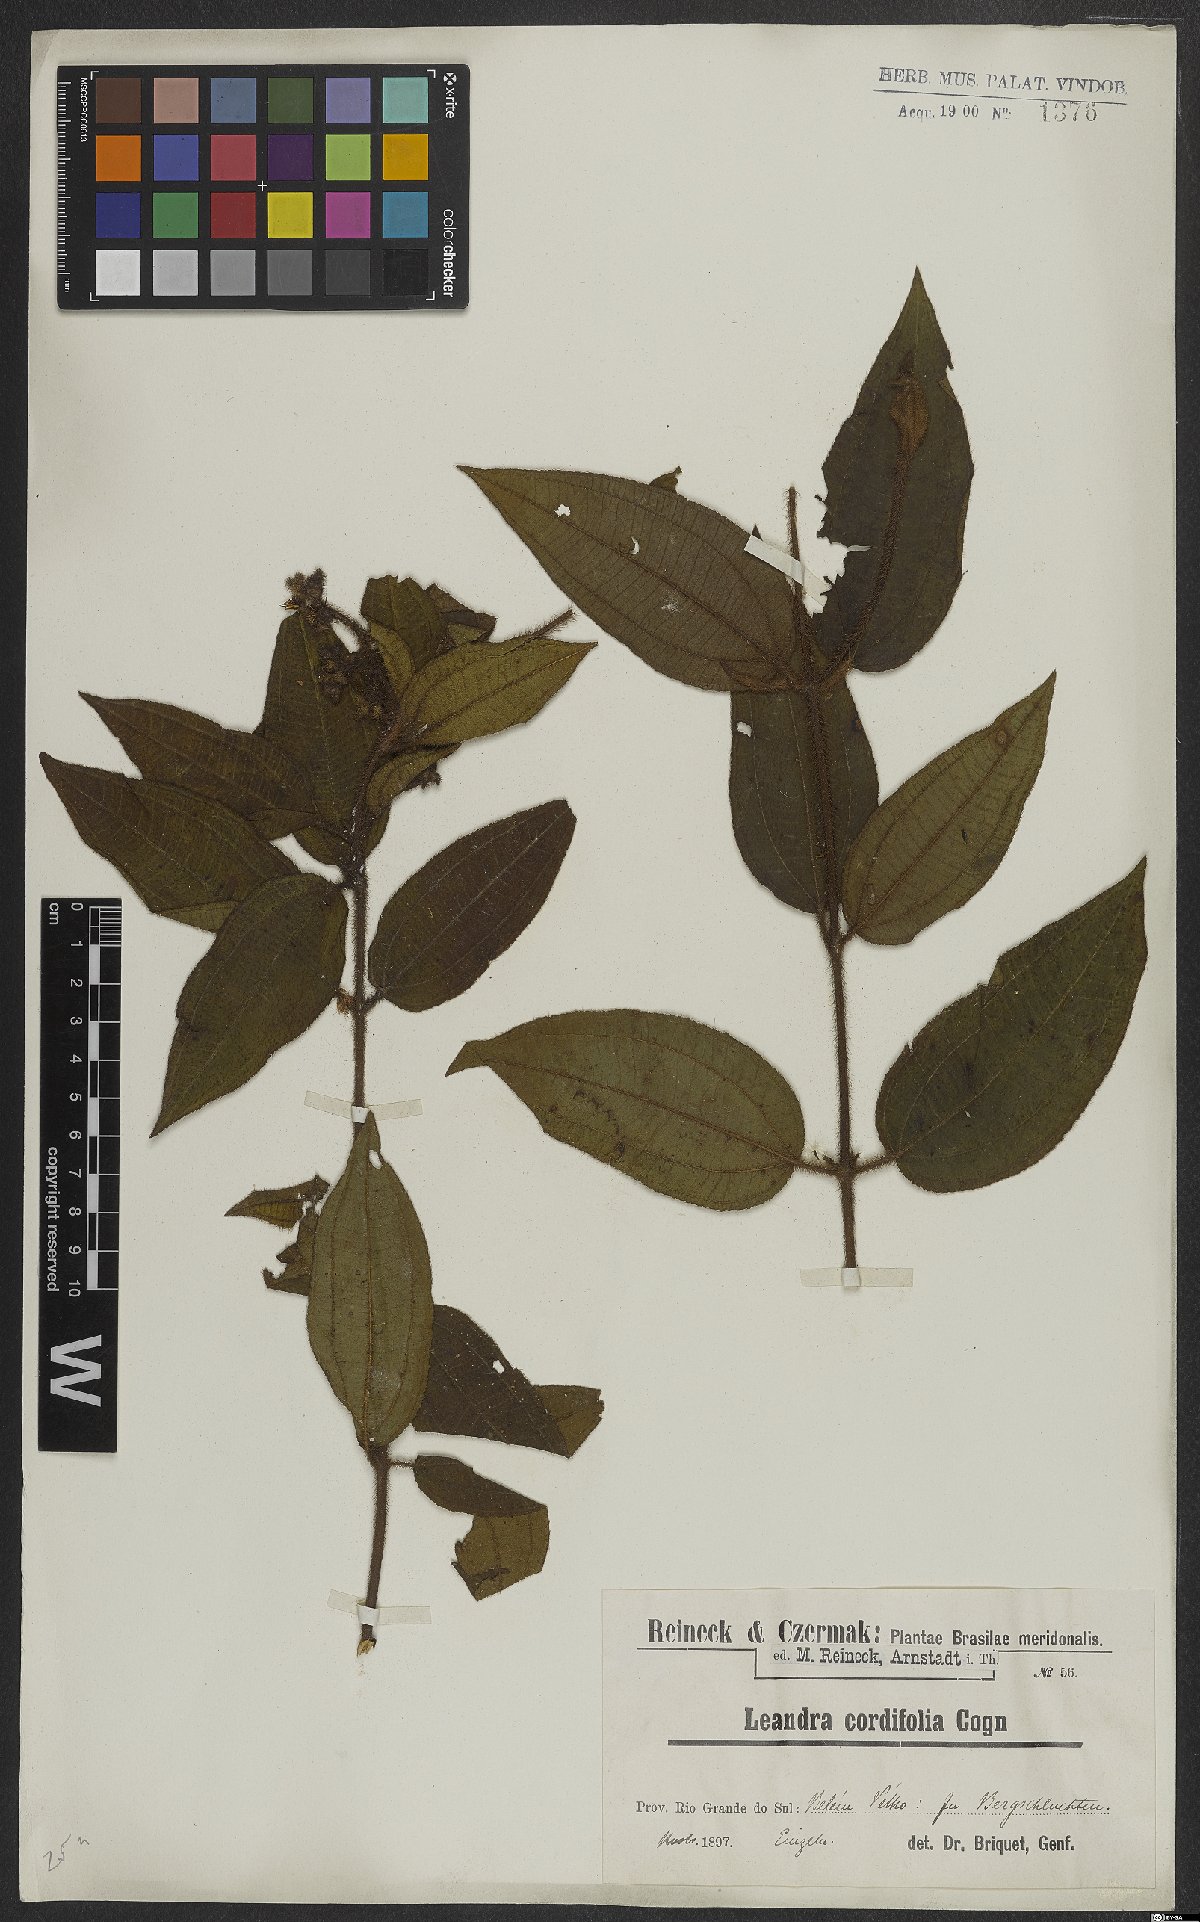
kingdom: Plantae
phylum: Tracheophyta
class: Magnoliopsida
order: Myrtales
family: Melastomataceae
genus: Miconia
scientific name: Miconia leacordifolia
